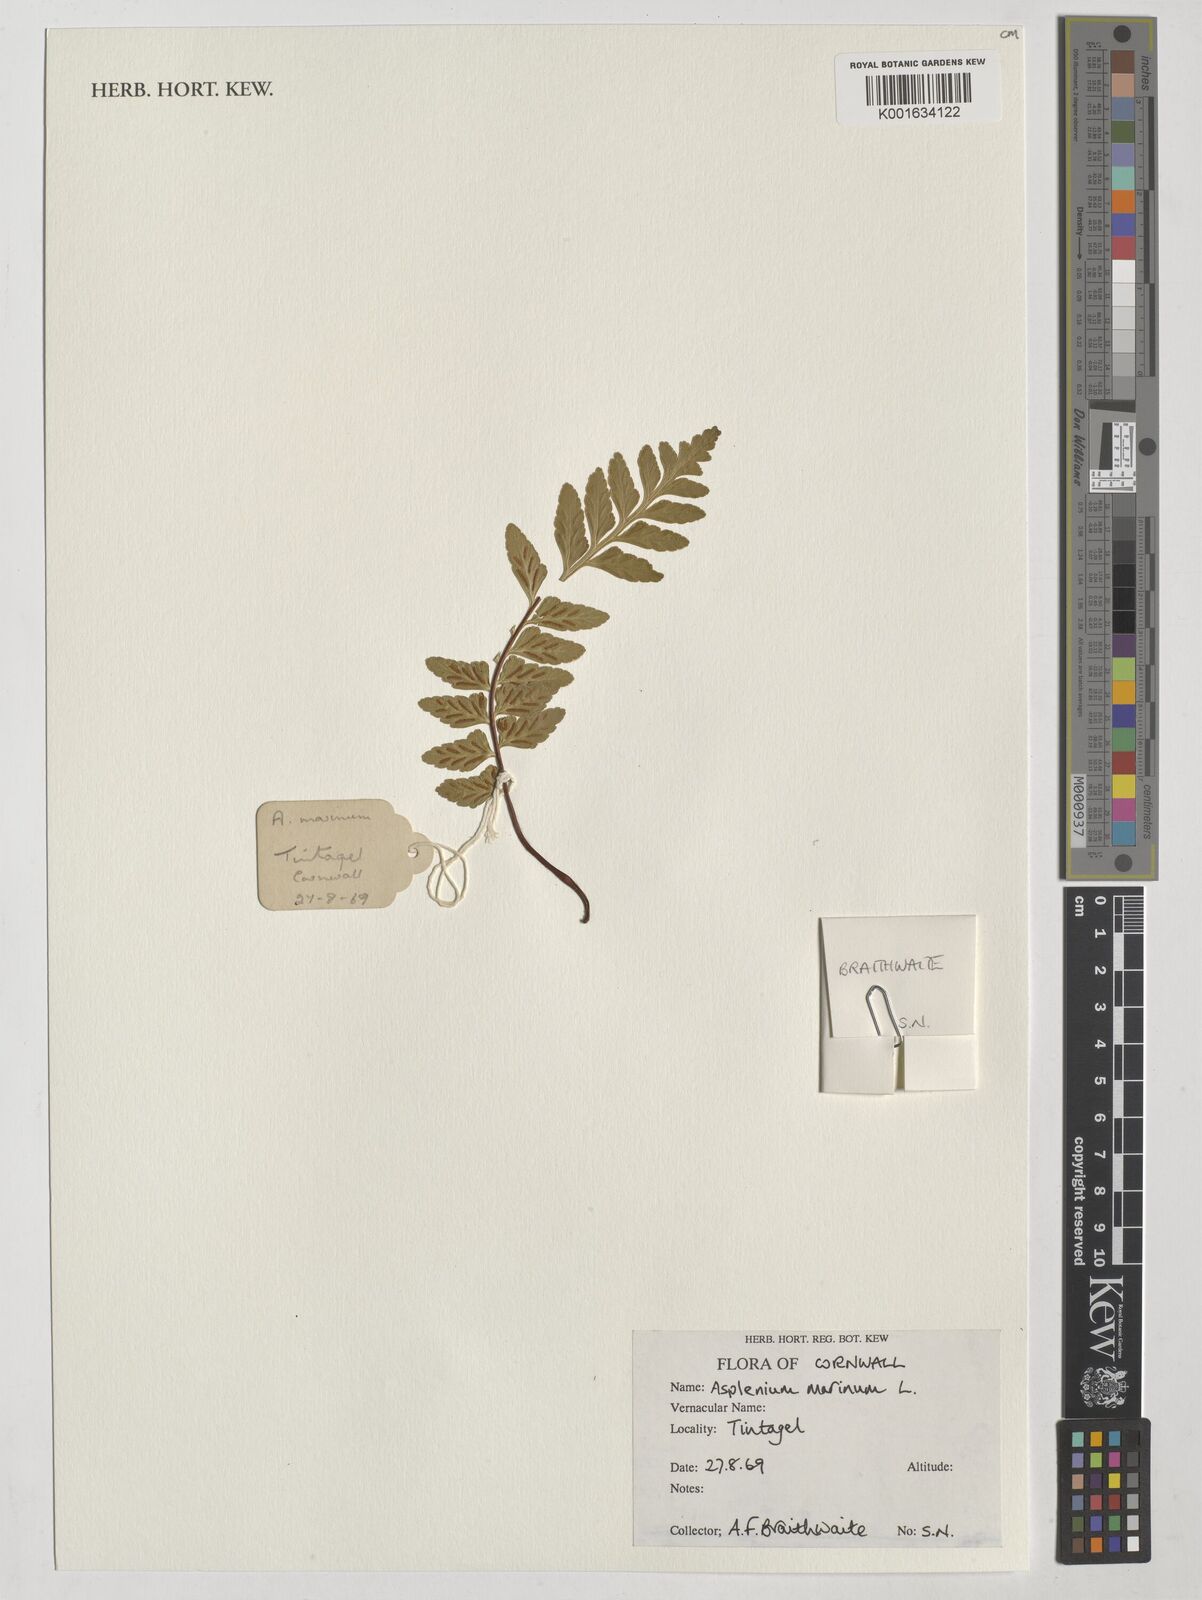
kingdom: Plantae
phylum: Tracheophyta
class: Polypodiopsida
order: Polypodiales
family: Aspleniaceae
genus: Asplenium
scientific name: Asplenium marinum
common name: Sea spleenwort
